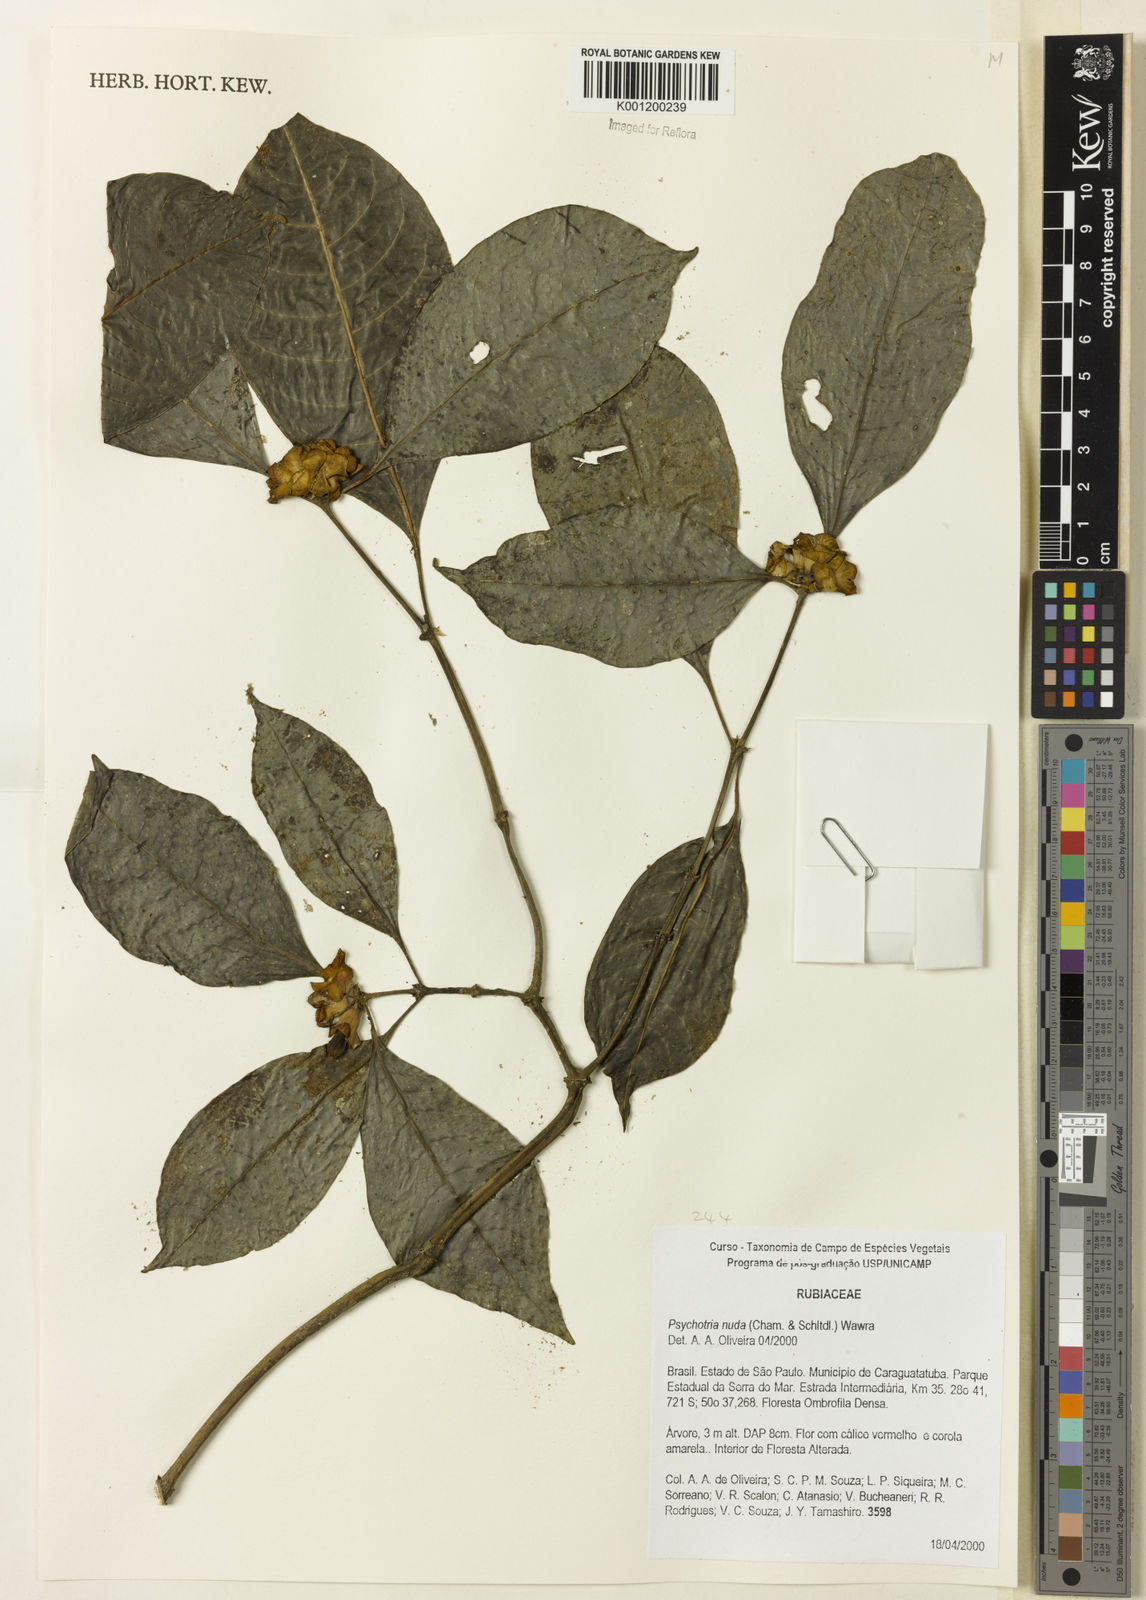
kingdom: Plantae
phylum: Tracheophyta
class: Magnoliopsida
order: Gentianales
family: Rubiaceae
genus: Psychotria
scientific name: Psychotria
